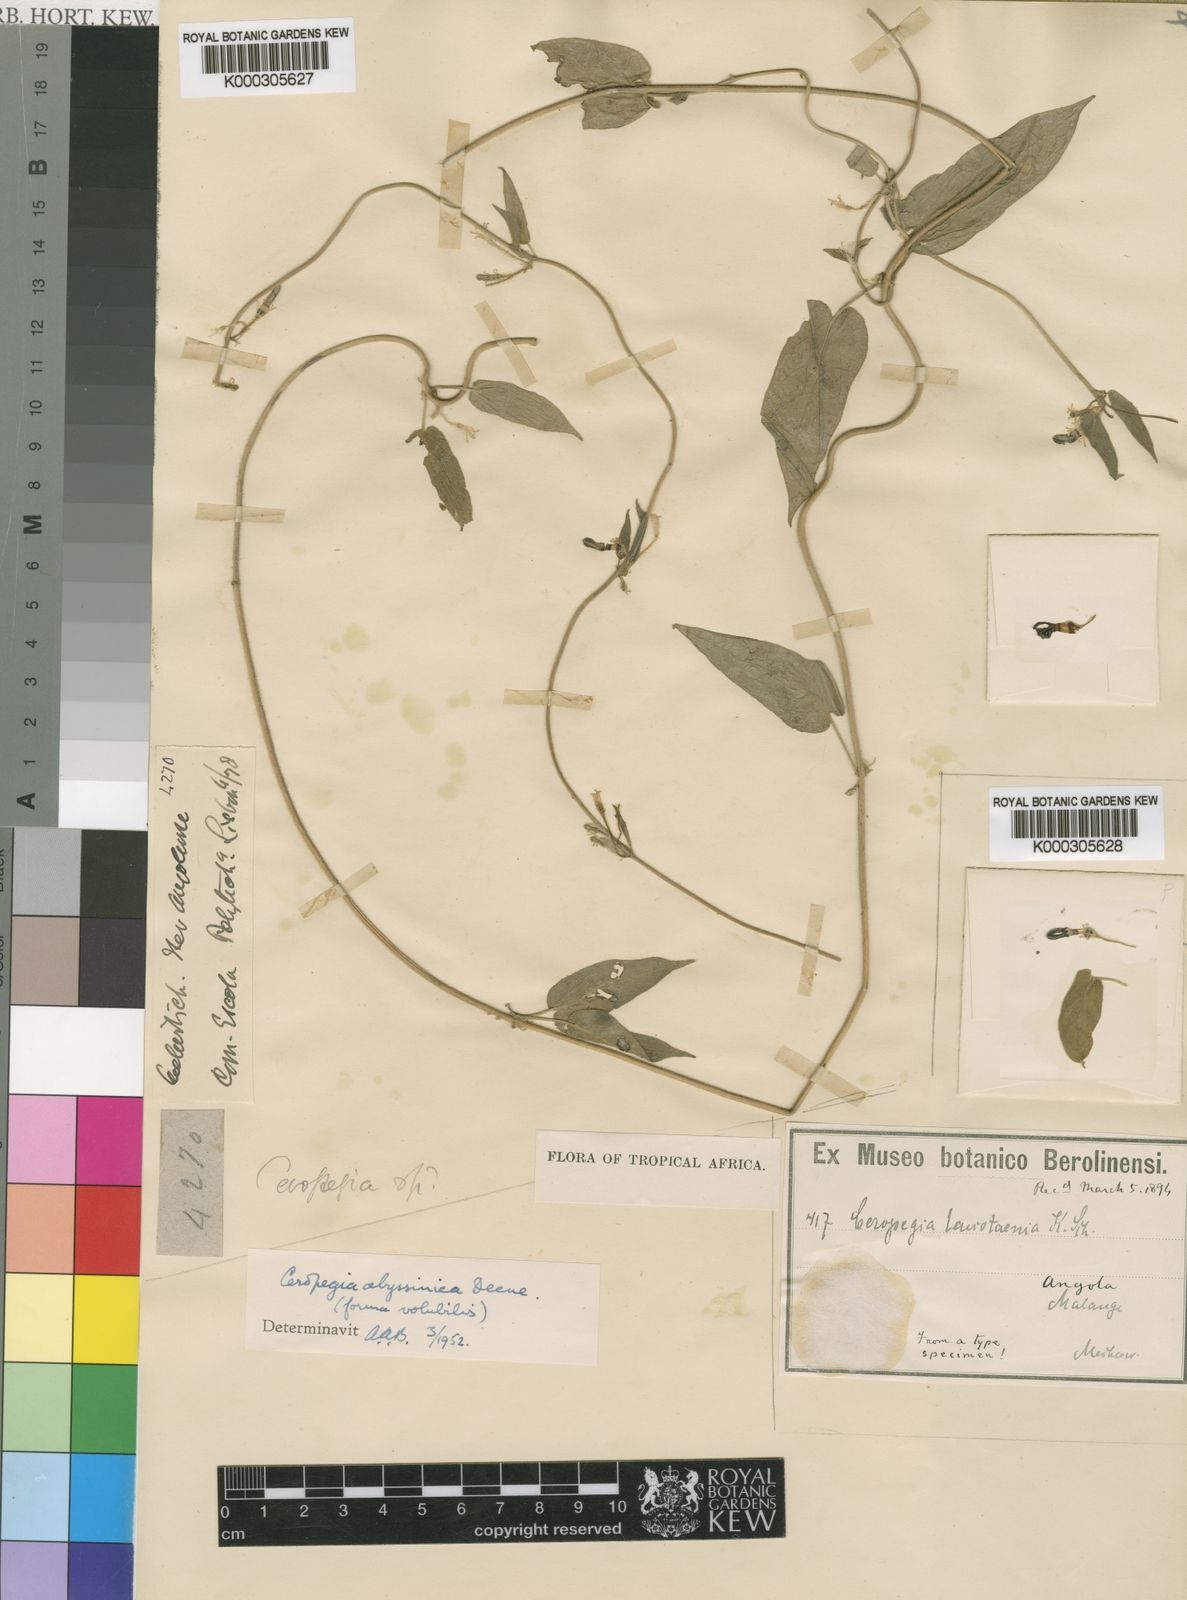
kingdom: Plantae
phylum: Tracheophyta
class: Magnoliopsida
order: Gentianales
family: Apocynaceae
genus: Ceropegia
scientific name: Ceropegia abyssinica
